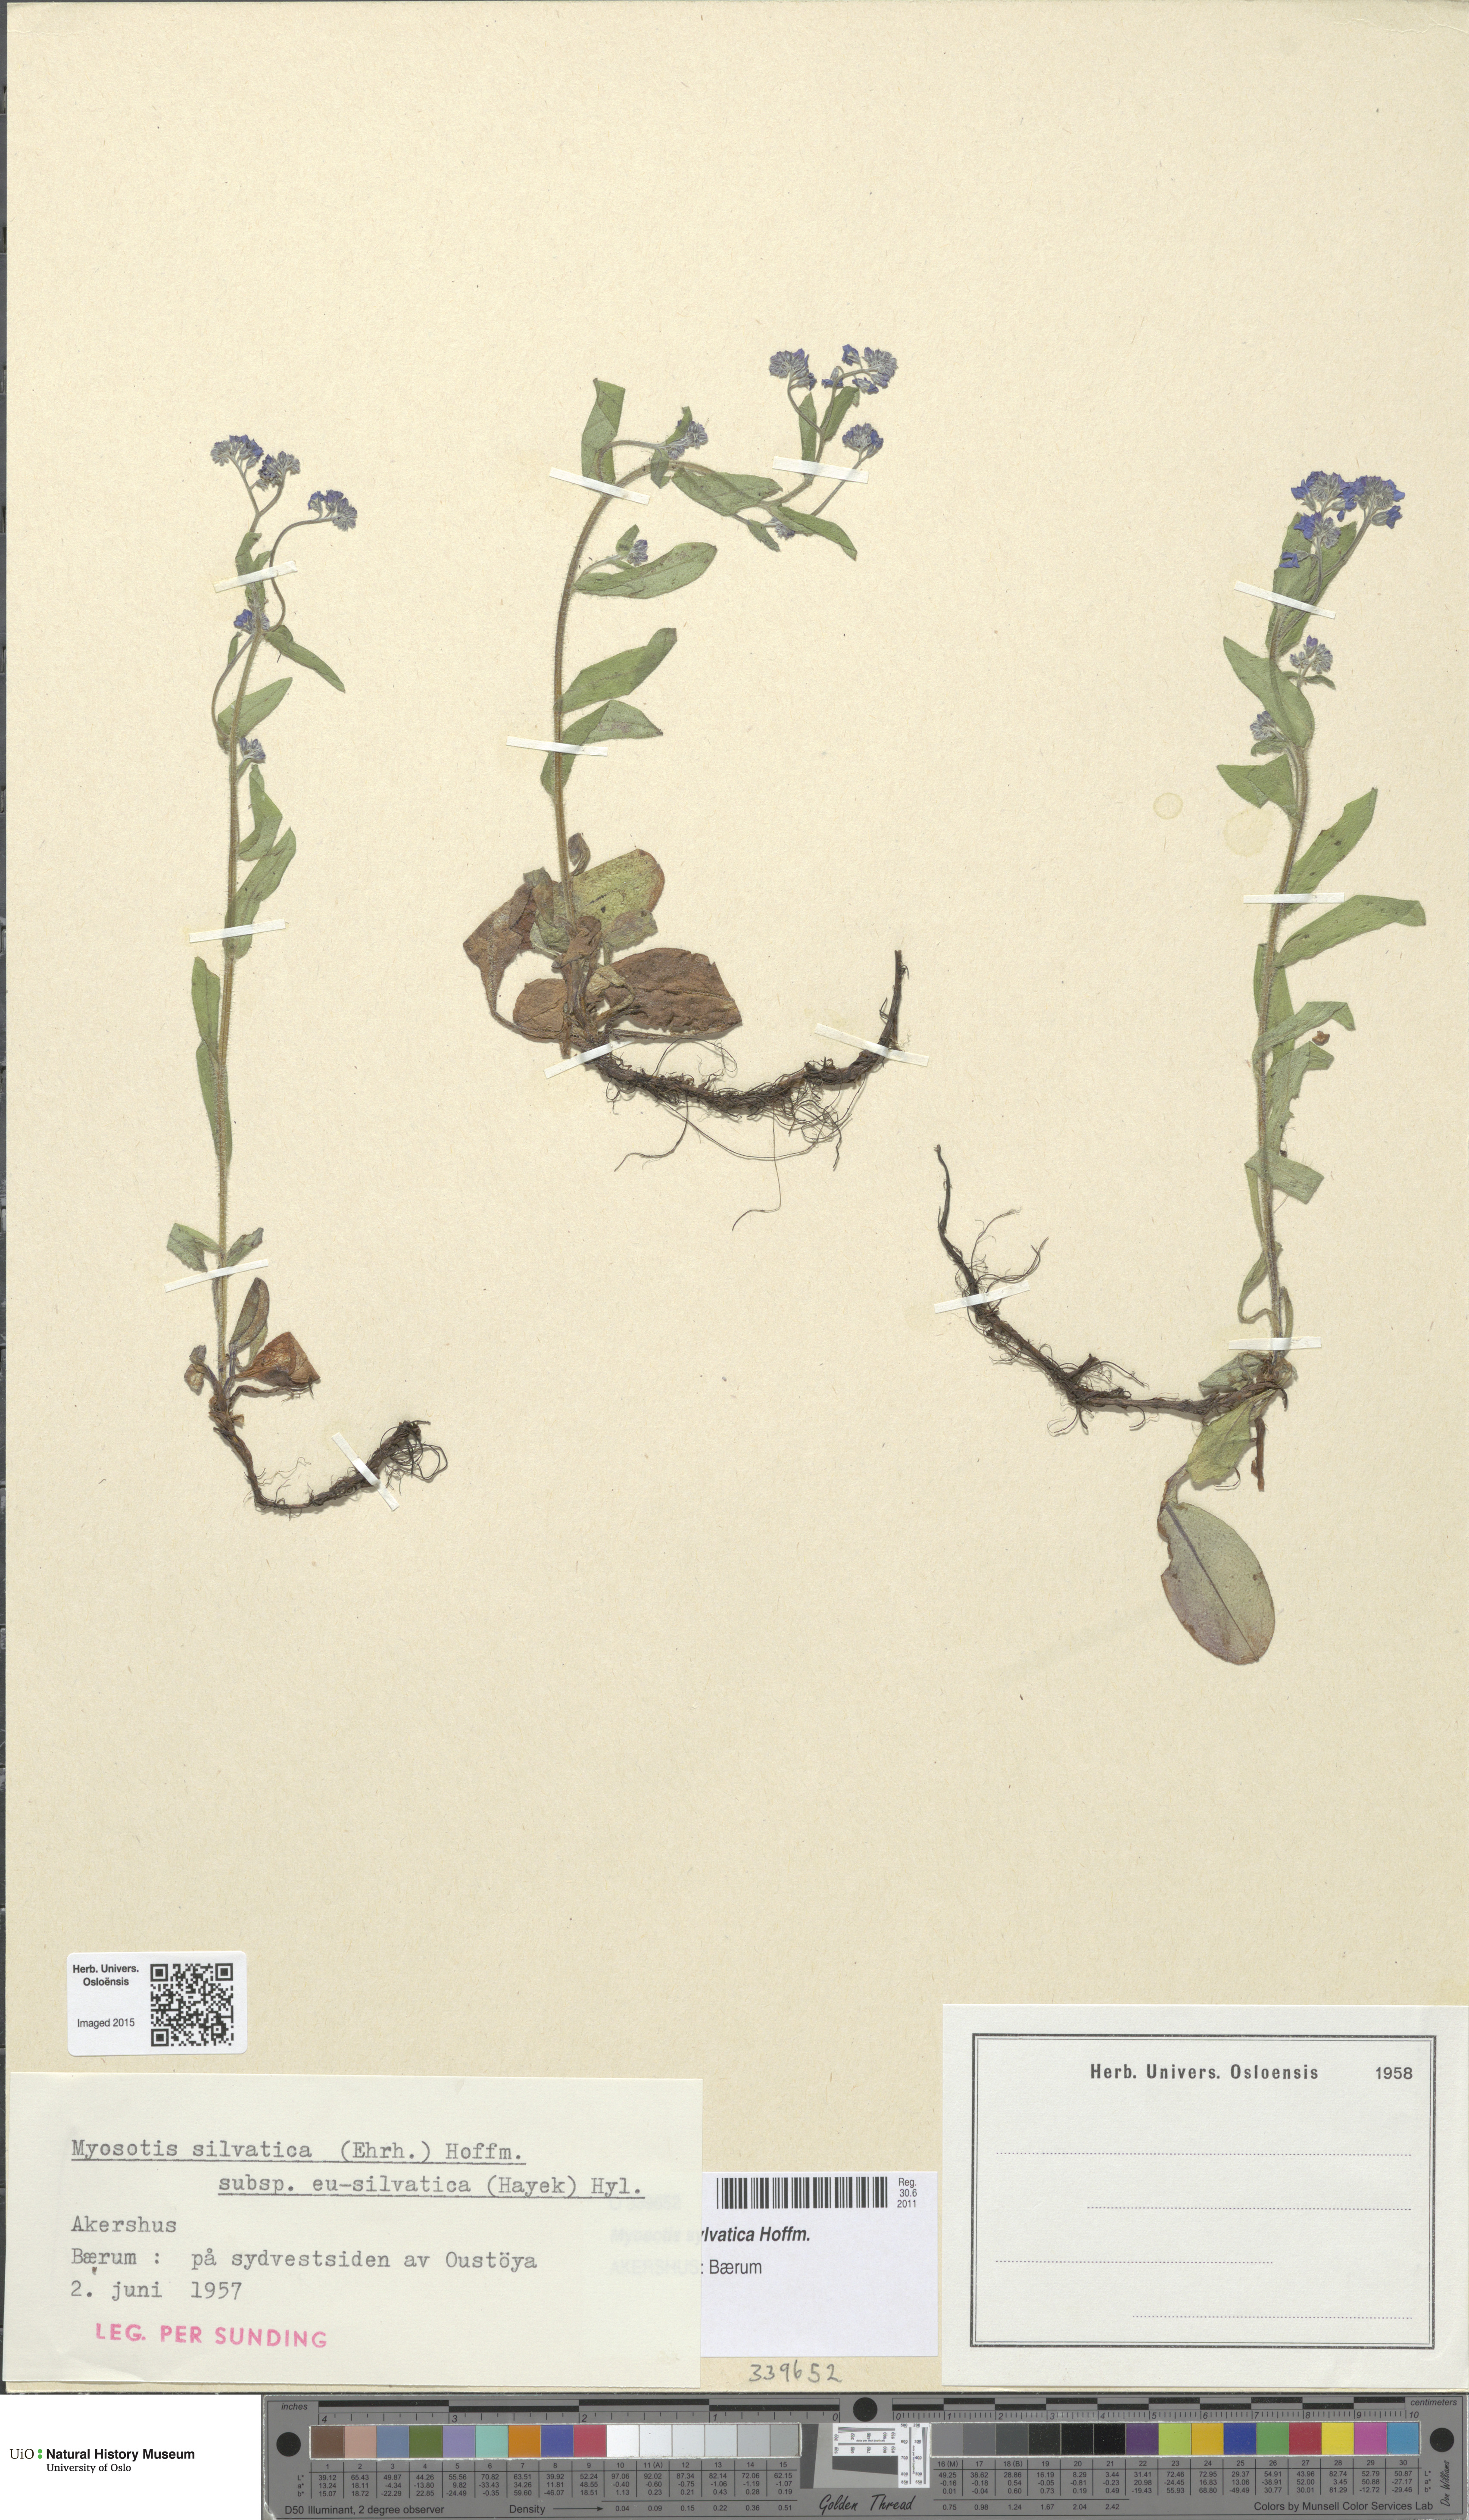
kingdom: Plantae
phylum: Tracheophyta
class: Magnoliopsida
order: Boraginales
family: Boraginaceae
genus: Myosotis
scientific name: Myosotis sylvatica
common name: Wood forget-me-not
